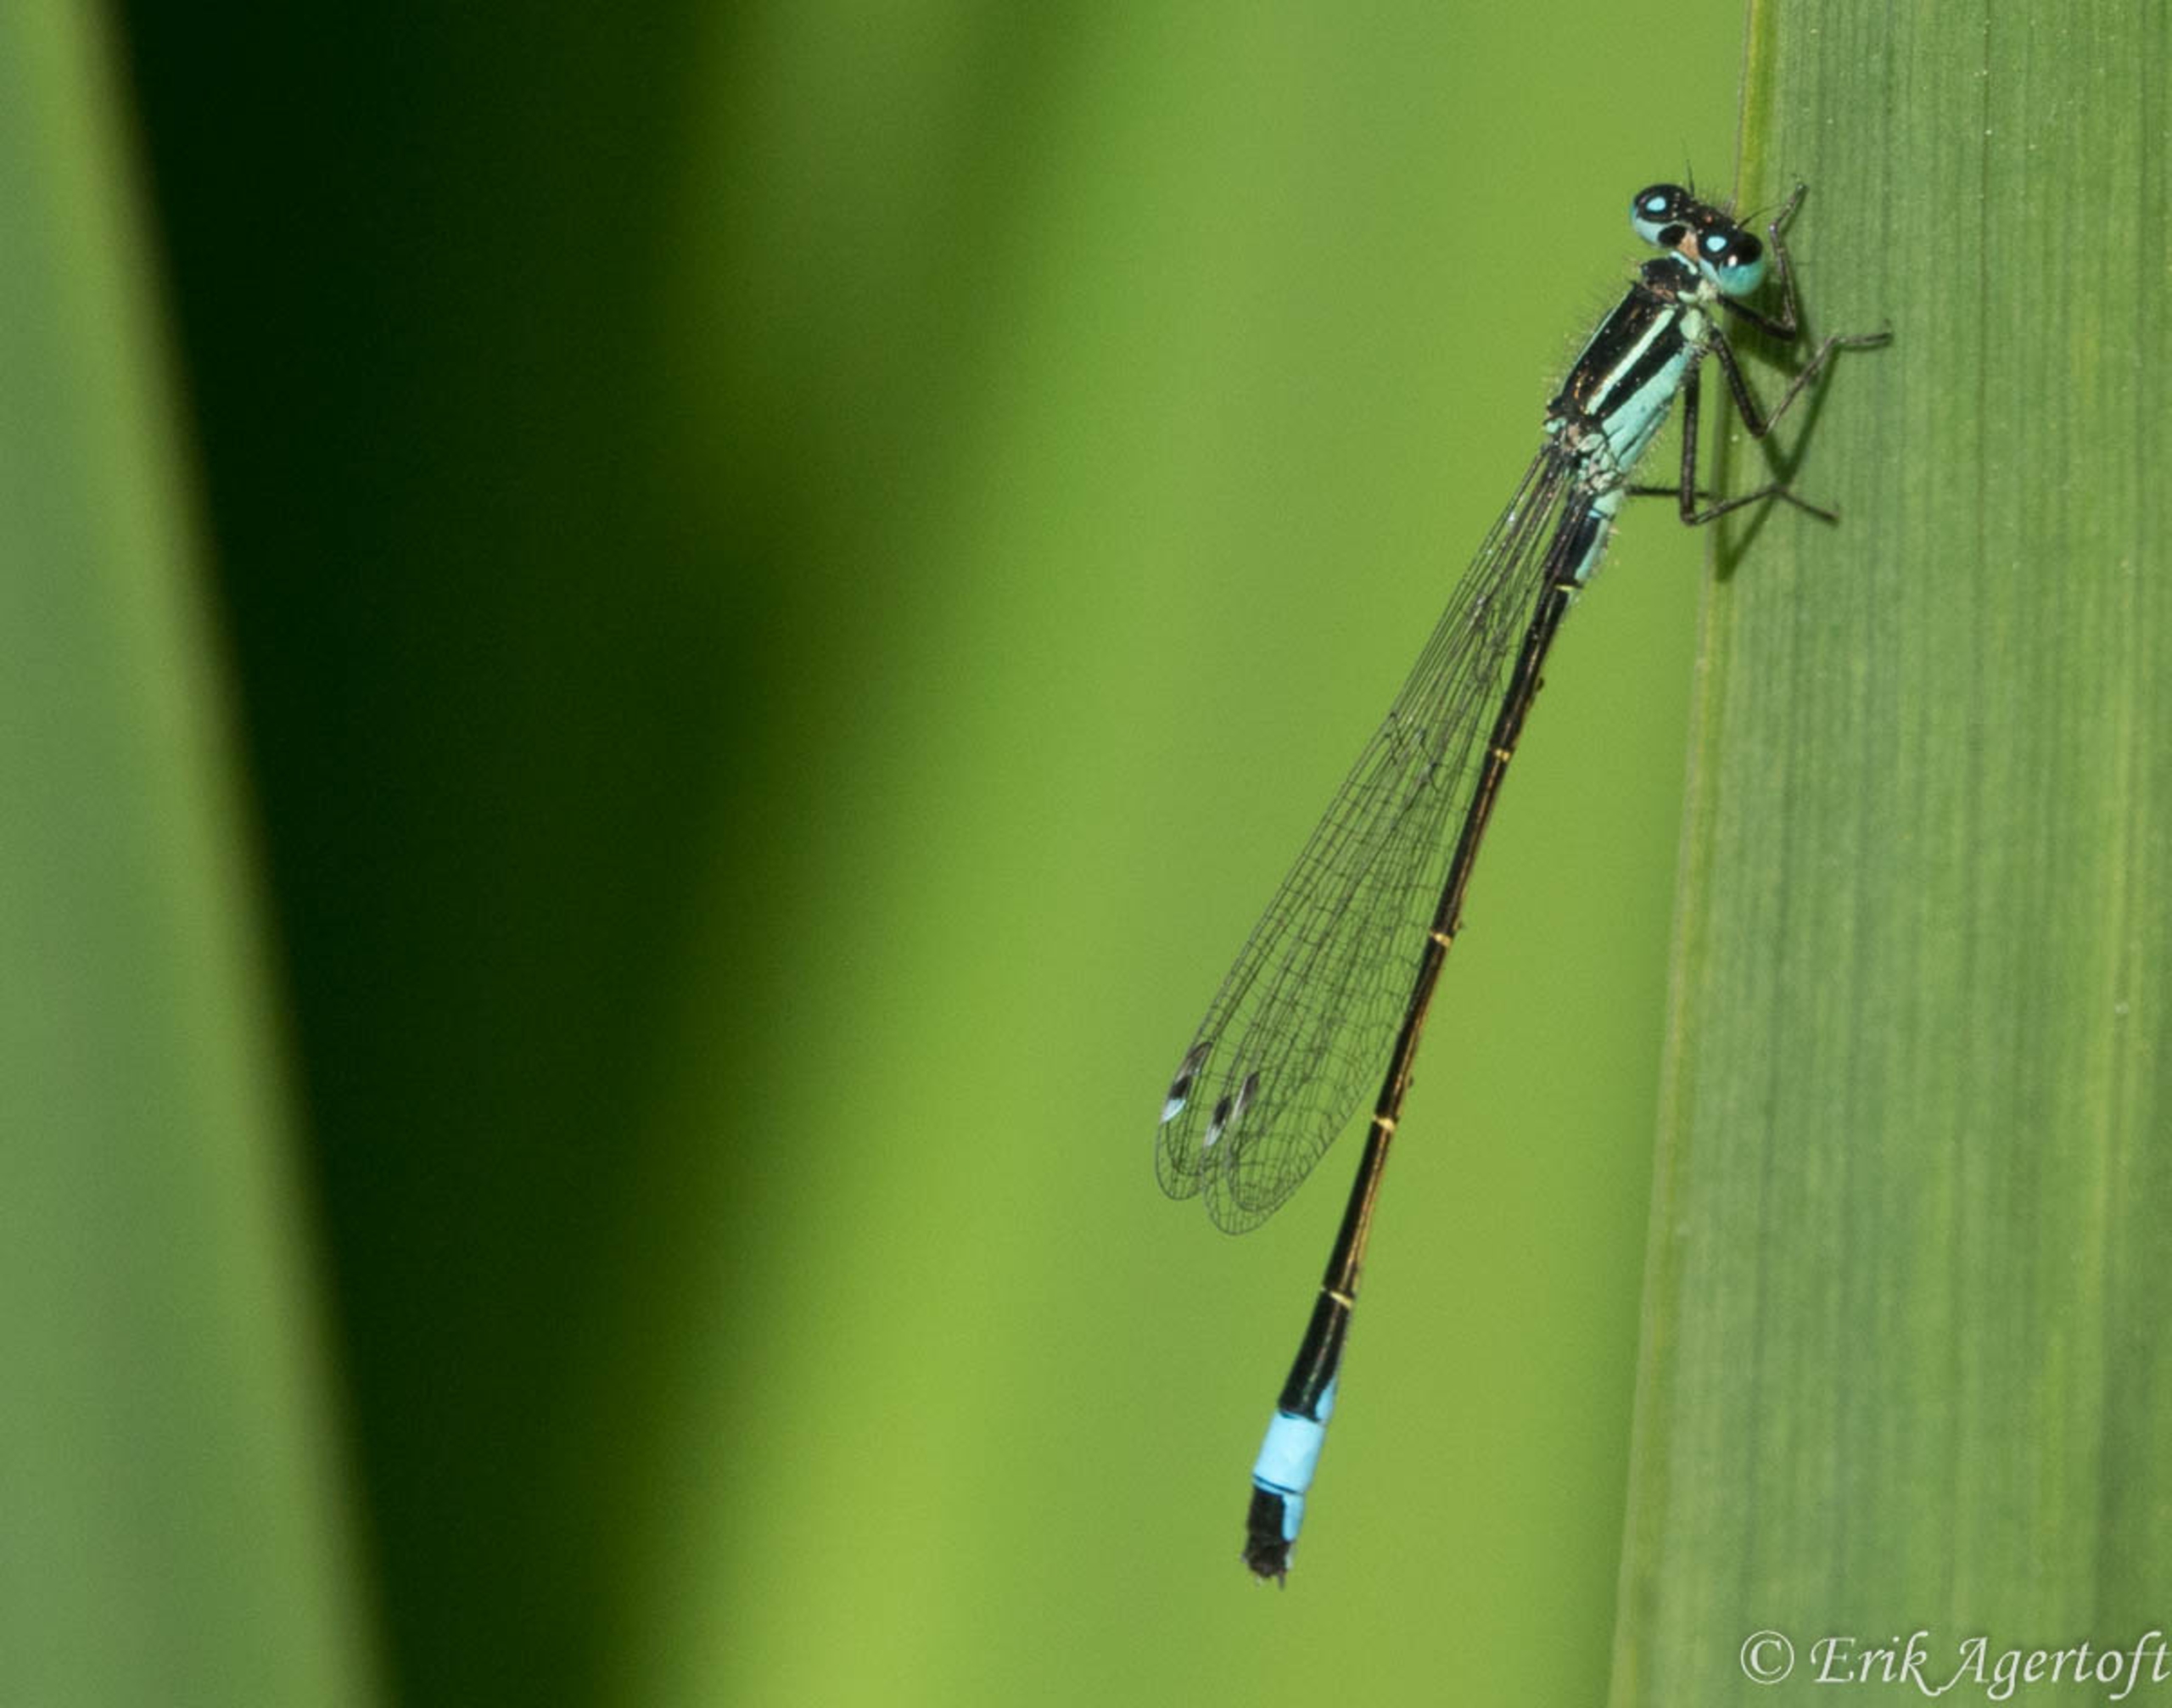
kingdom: Animalia
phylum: Arthropoda
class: Insecta
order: Odonata
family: Coenagrionidae
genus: Ischnura
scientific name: Ischnura elegans
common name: Stor farvevandnymfe
